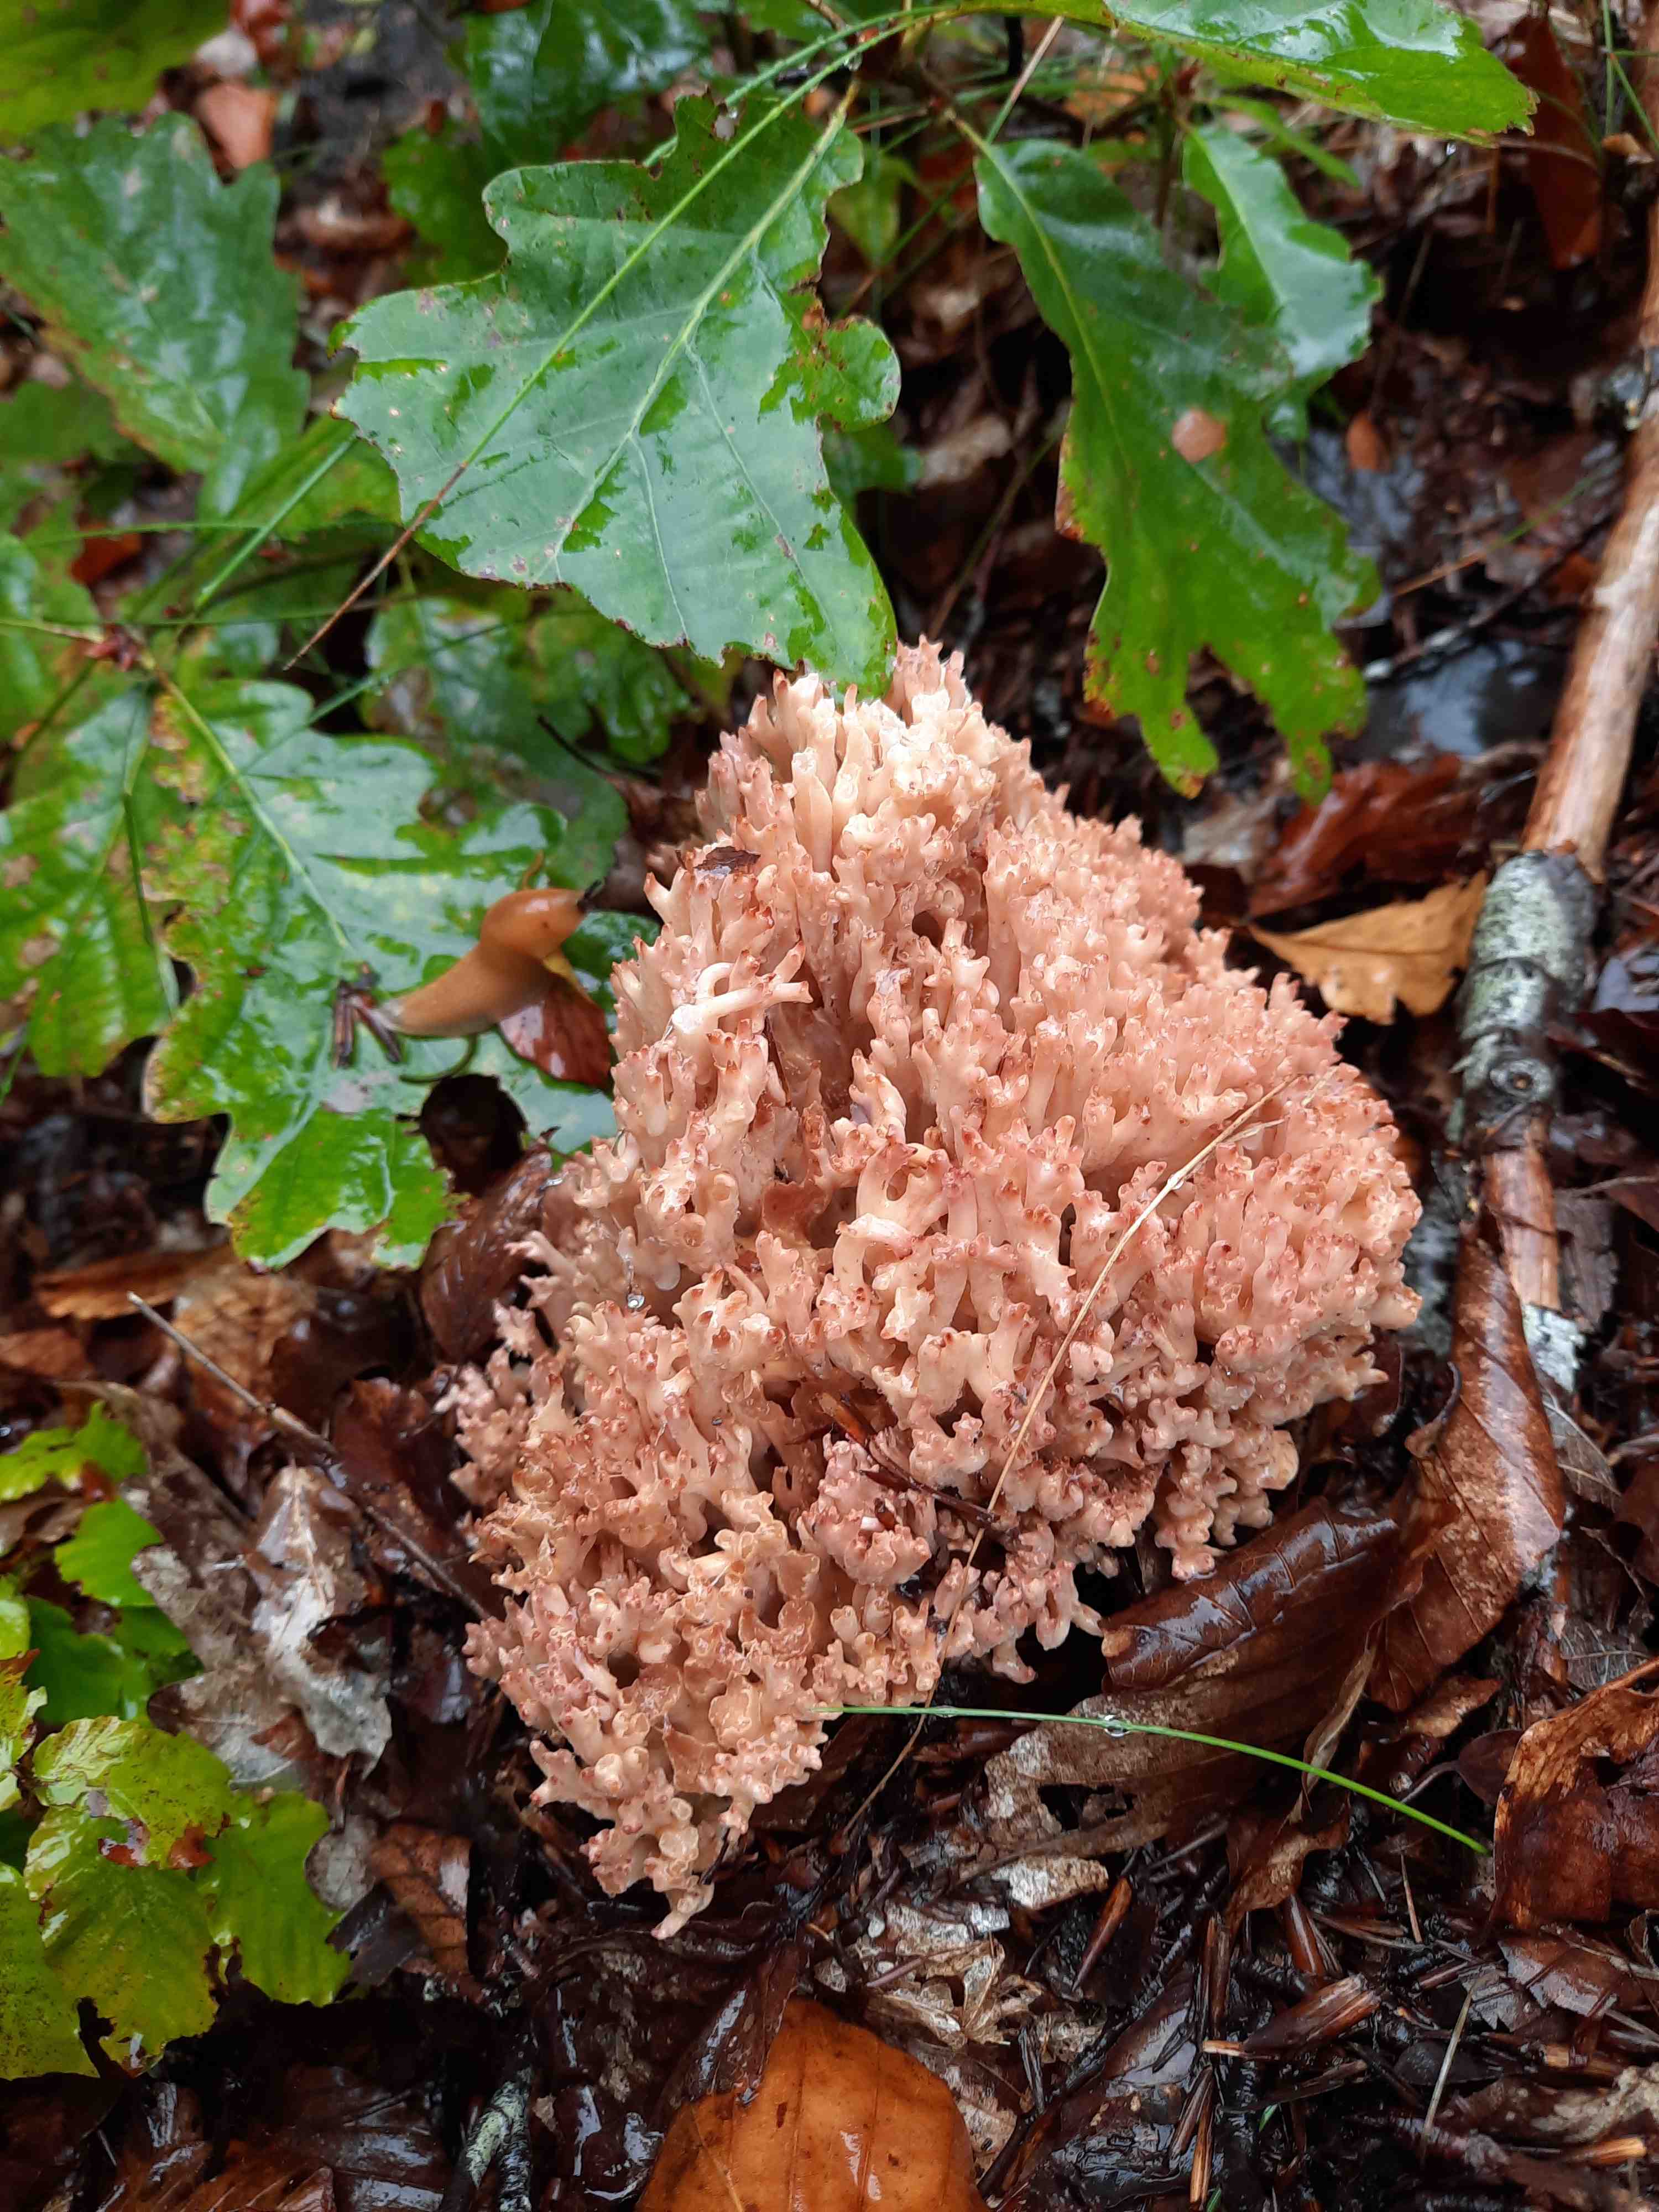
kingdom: Fungi
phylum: Basidiomycota
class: Agaricomycetes
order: Gomphales
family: Gomphaceae
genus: Ramaria
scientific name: Ramaria botrytis
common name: drue-koralsvamp
